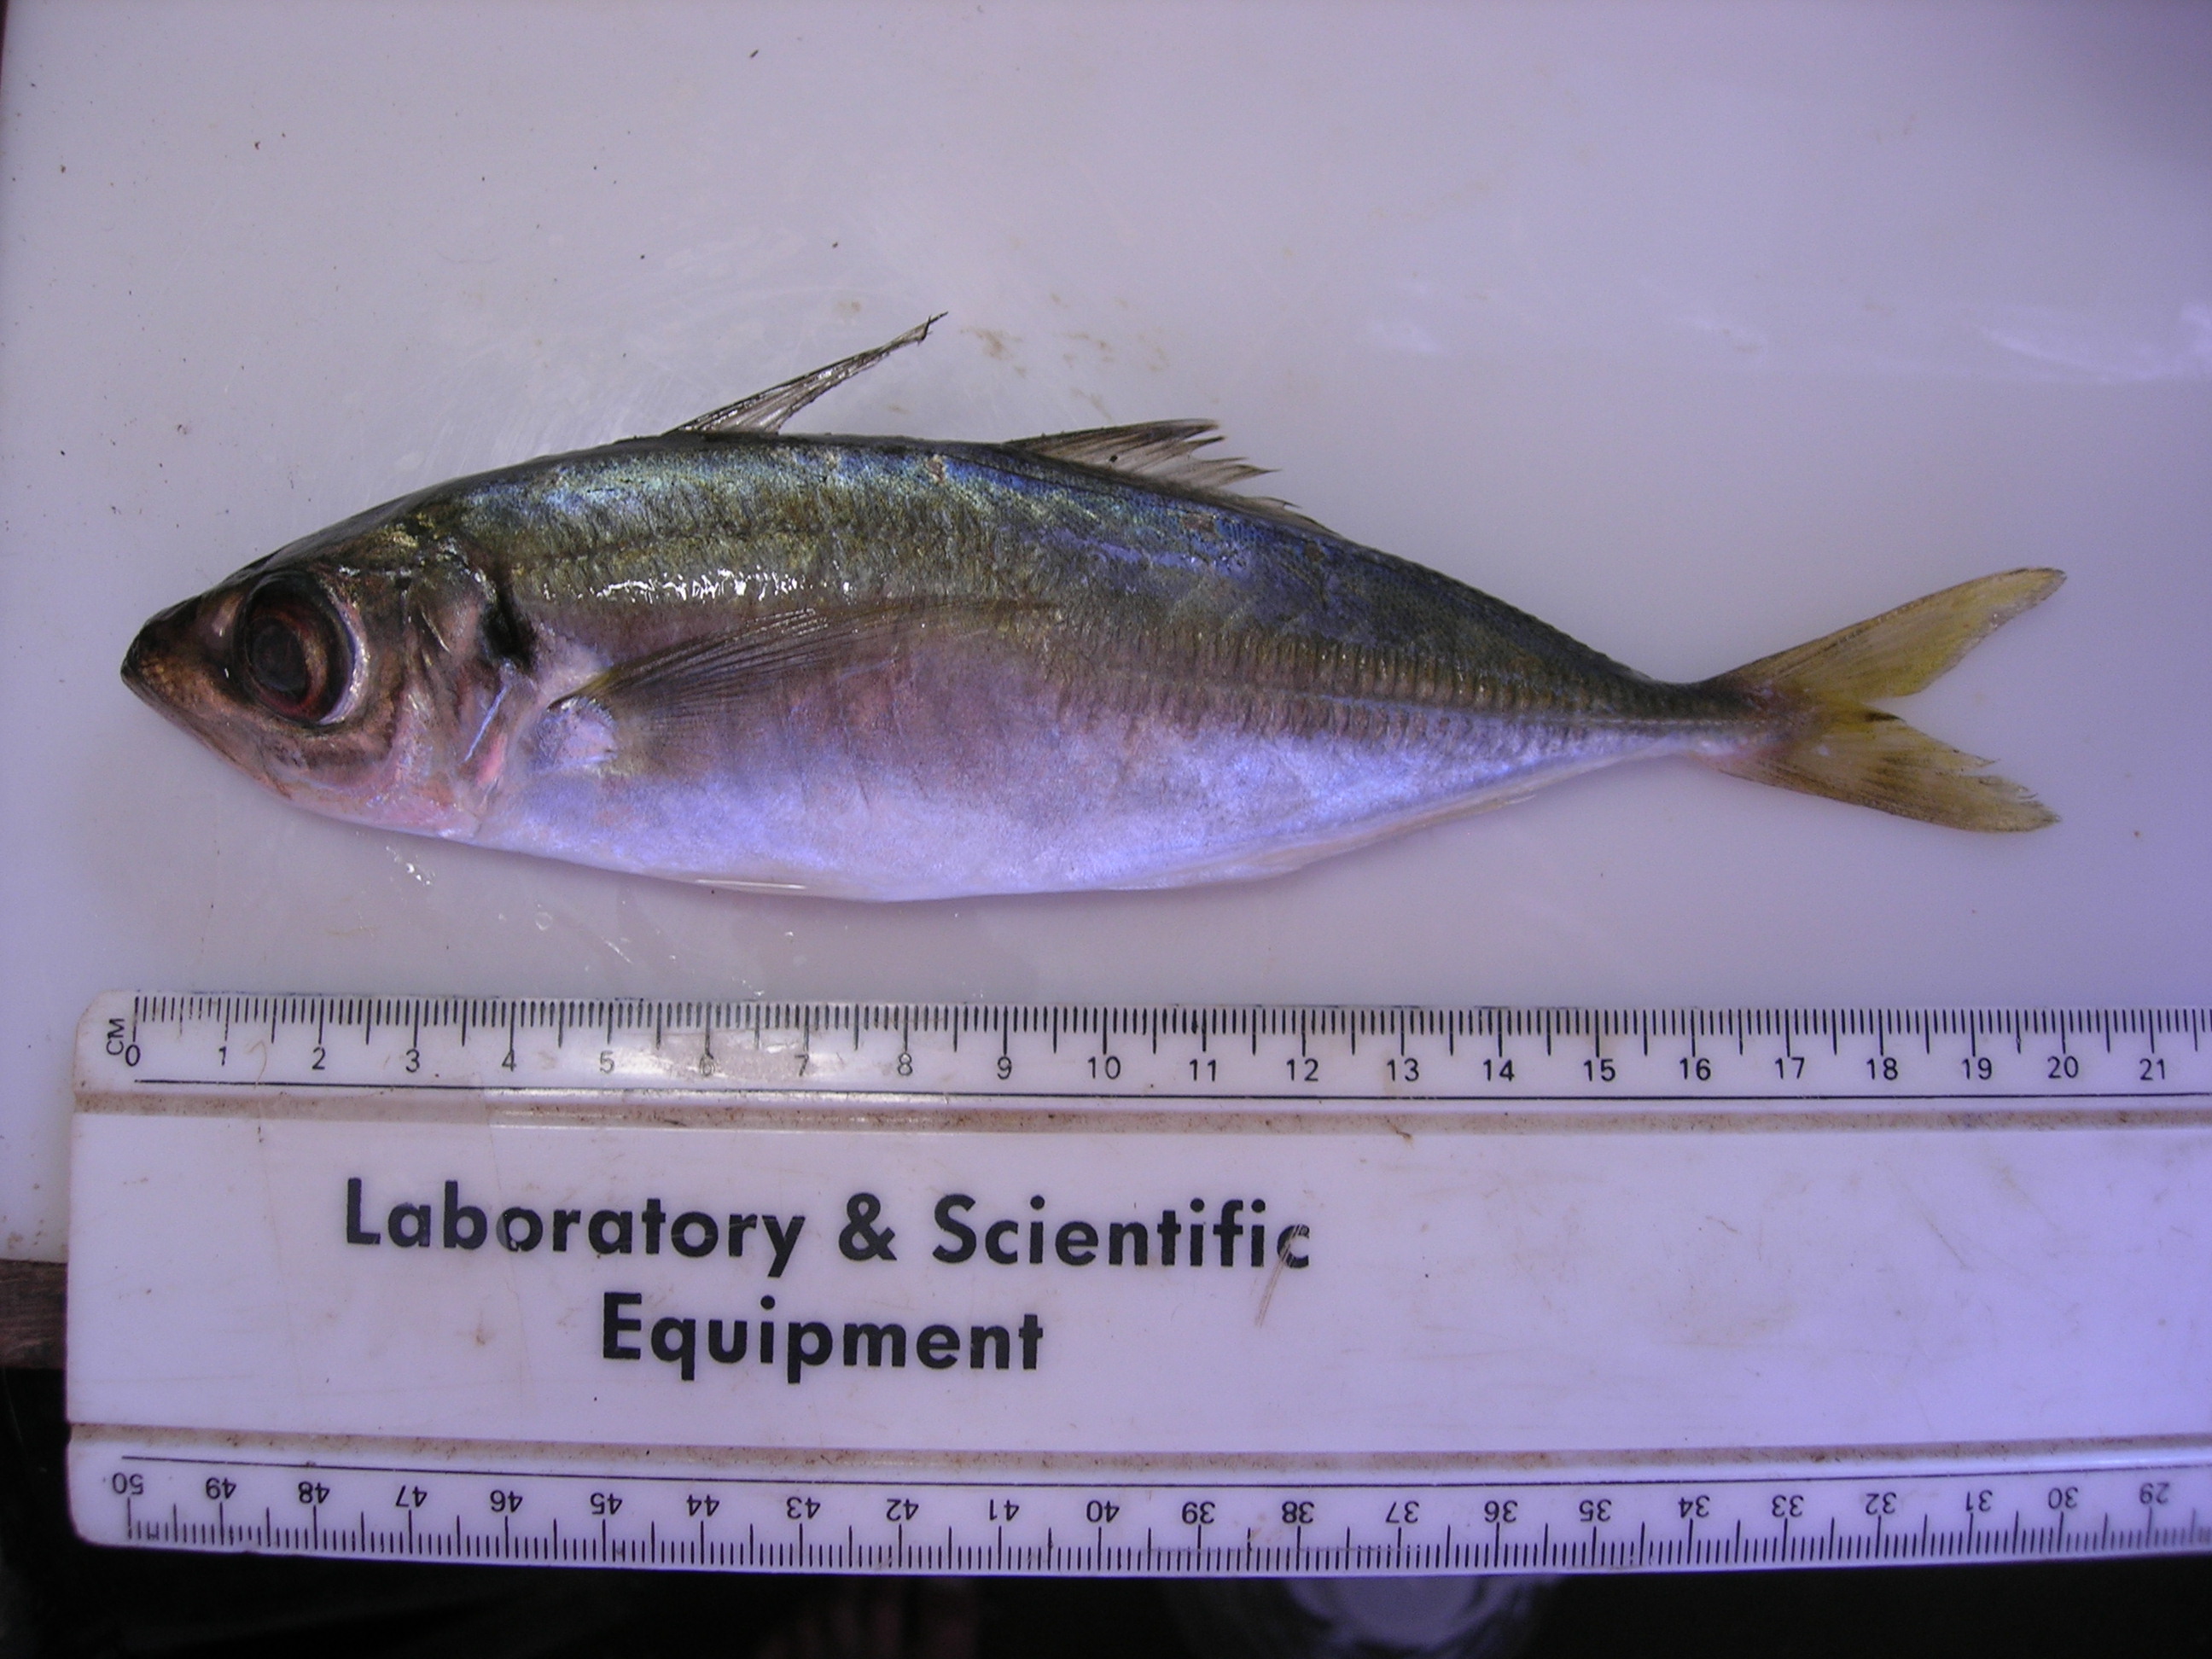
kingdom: Animalia
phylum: Chordata
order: Perciformes
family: Carangidae
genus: Trachurus
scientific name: Trachurus delagoa
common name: African scad
